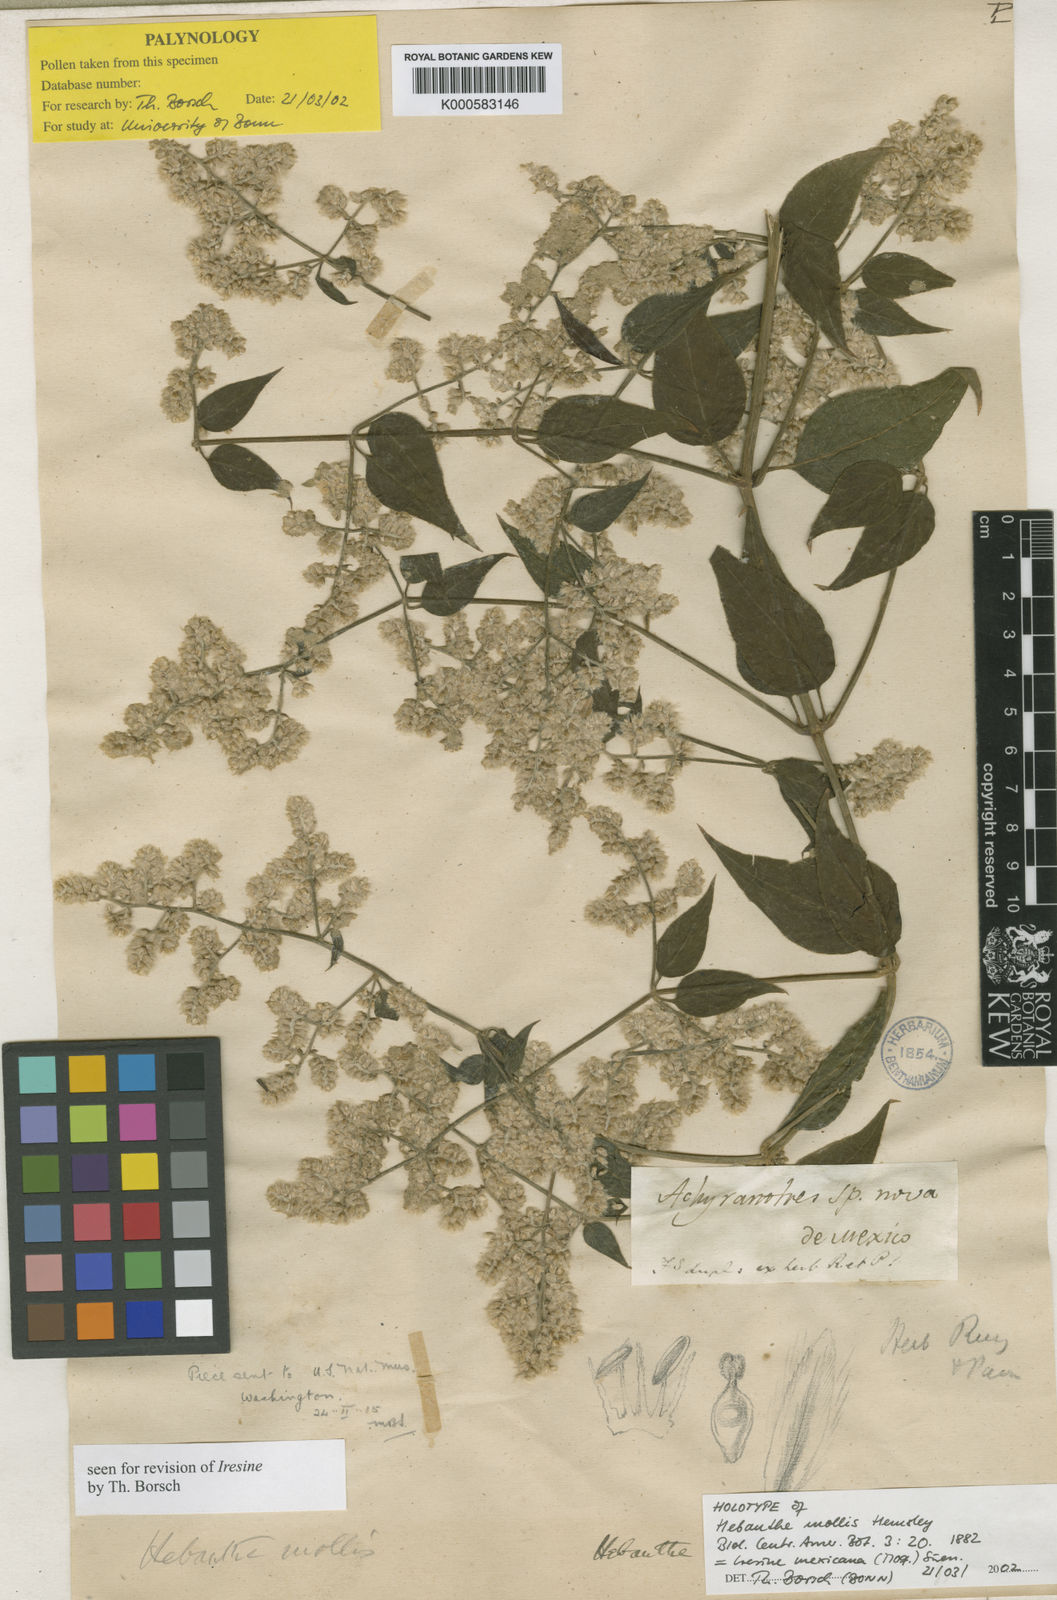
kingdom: Plantae
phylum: Tracheophyta
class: Magnoliopsida
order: Caryophyllales
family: Amaranthaceae
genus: Alternanthera
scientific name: Alternanthera lanceolata
